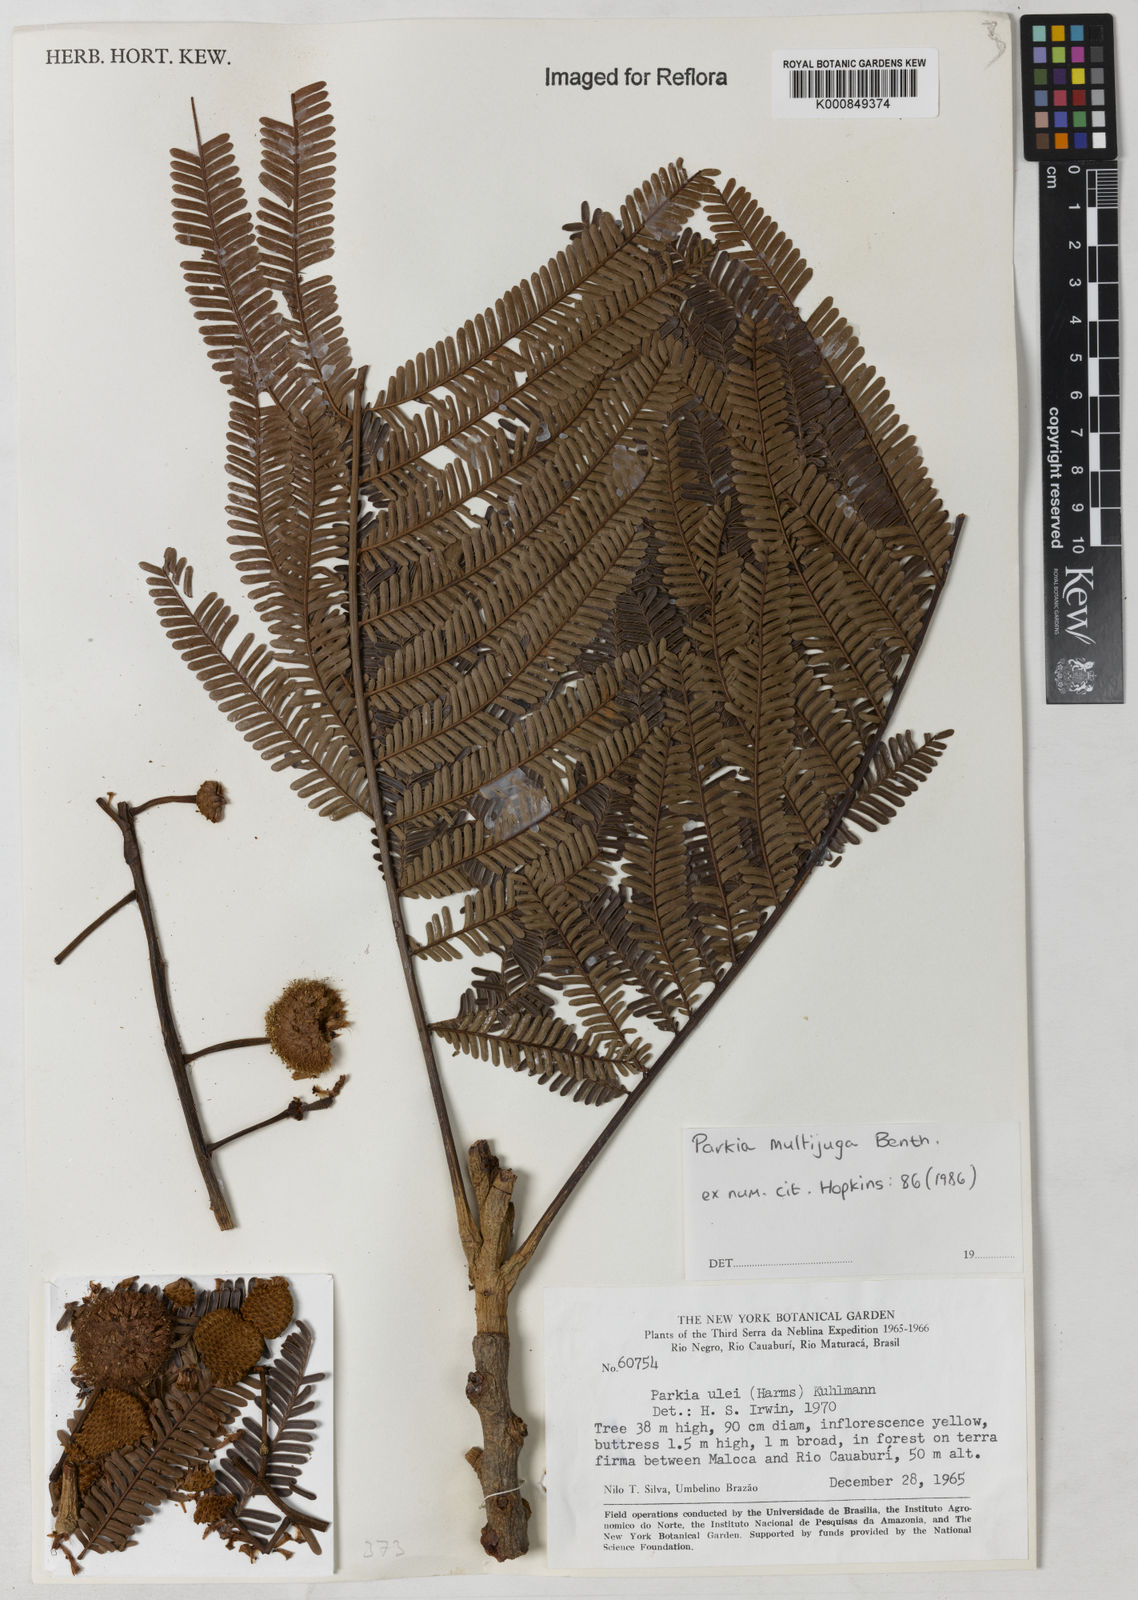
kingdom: Plantae
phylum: Tracheophyta
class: Magnoliopsida
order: Fabales
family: Fabaceae
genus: Parkia
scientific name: Parkia multijuga
